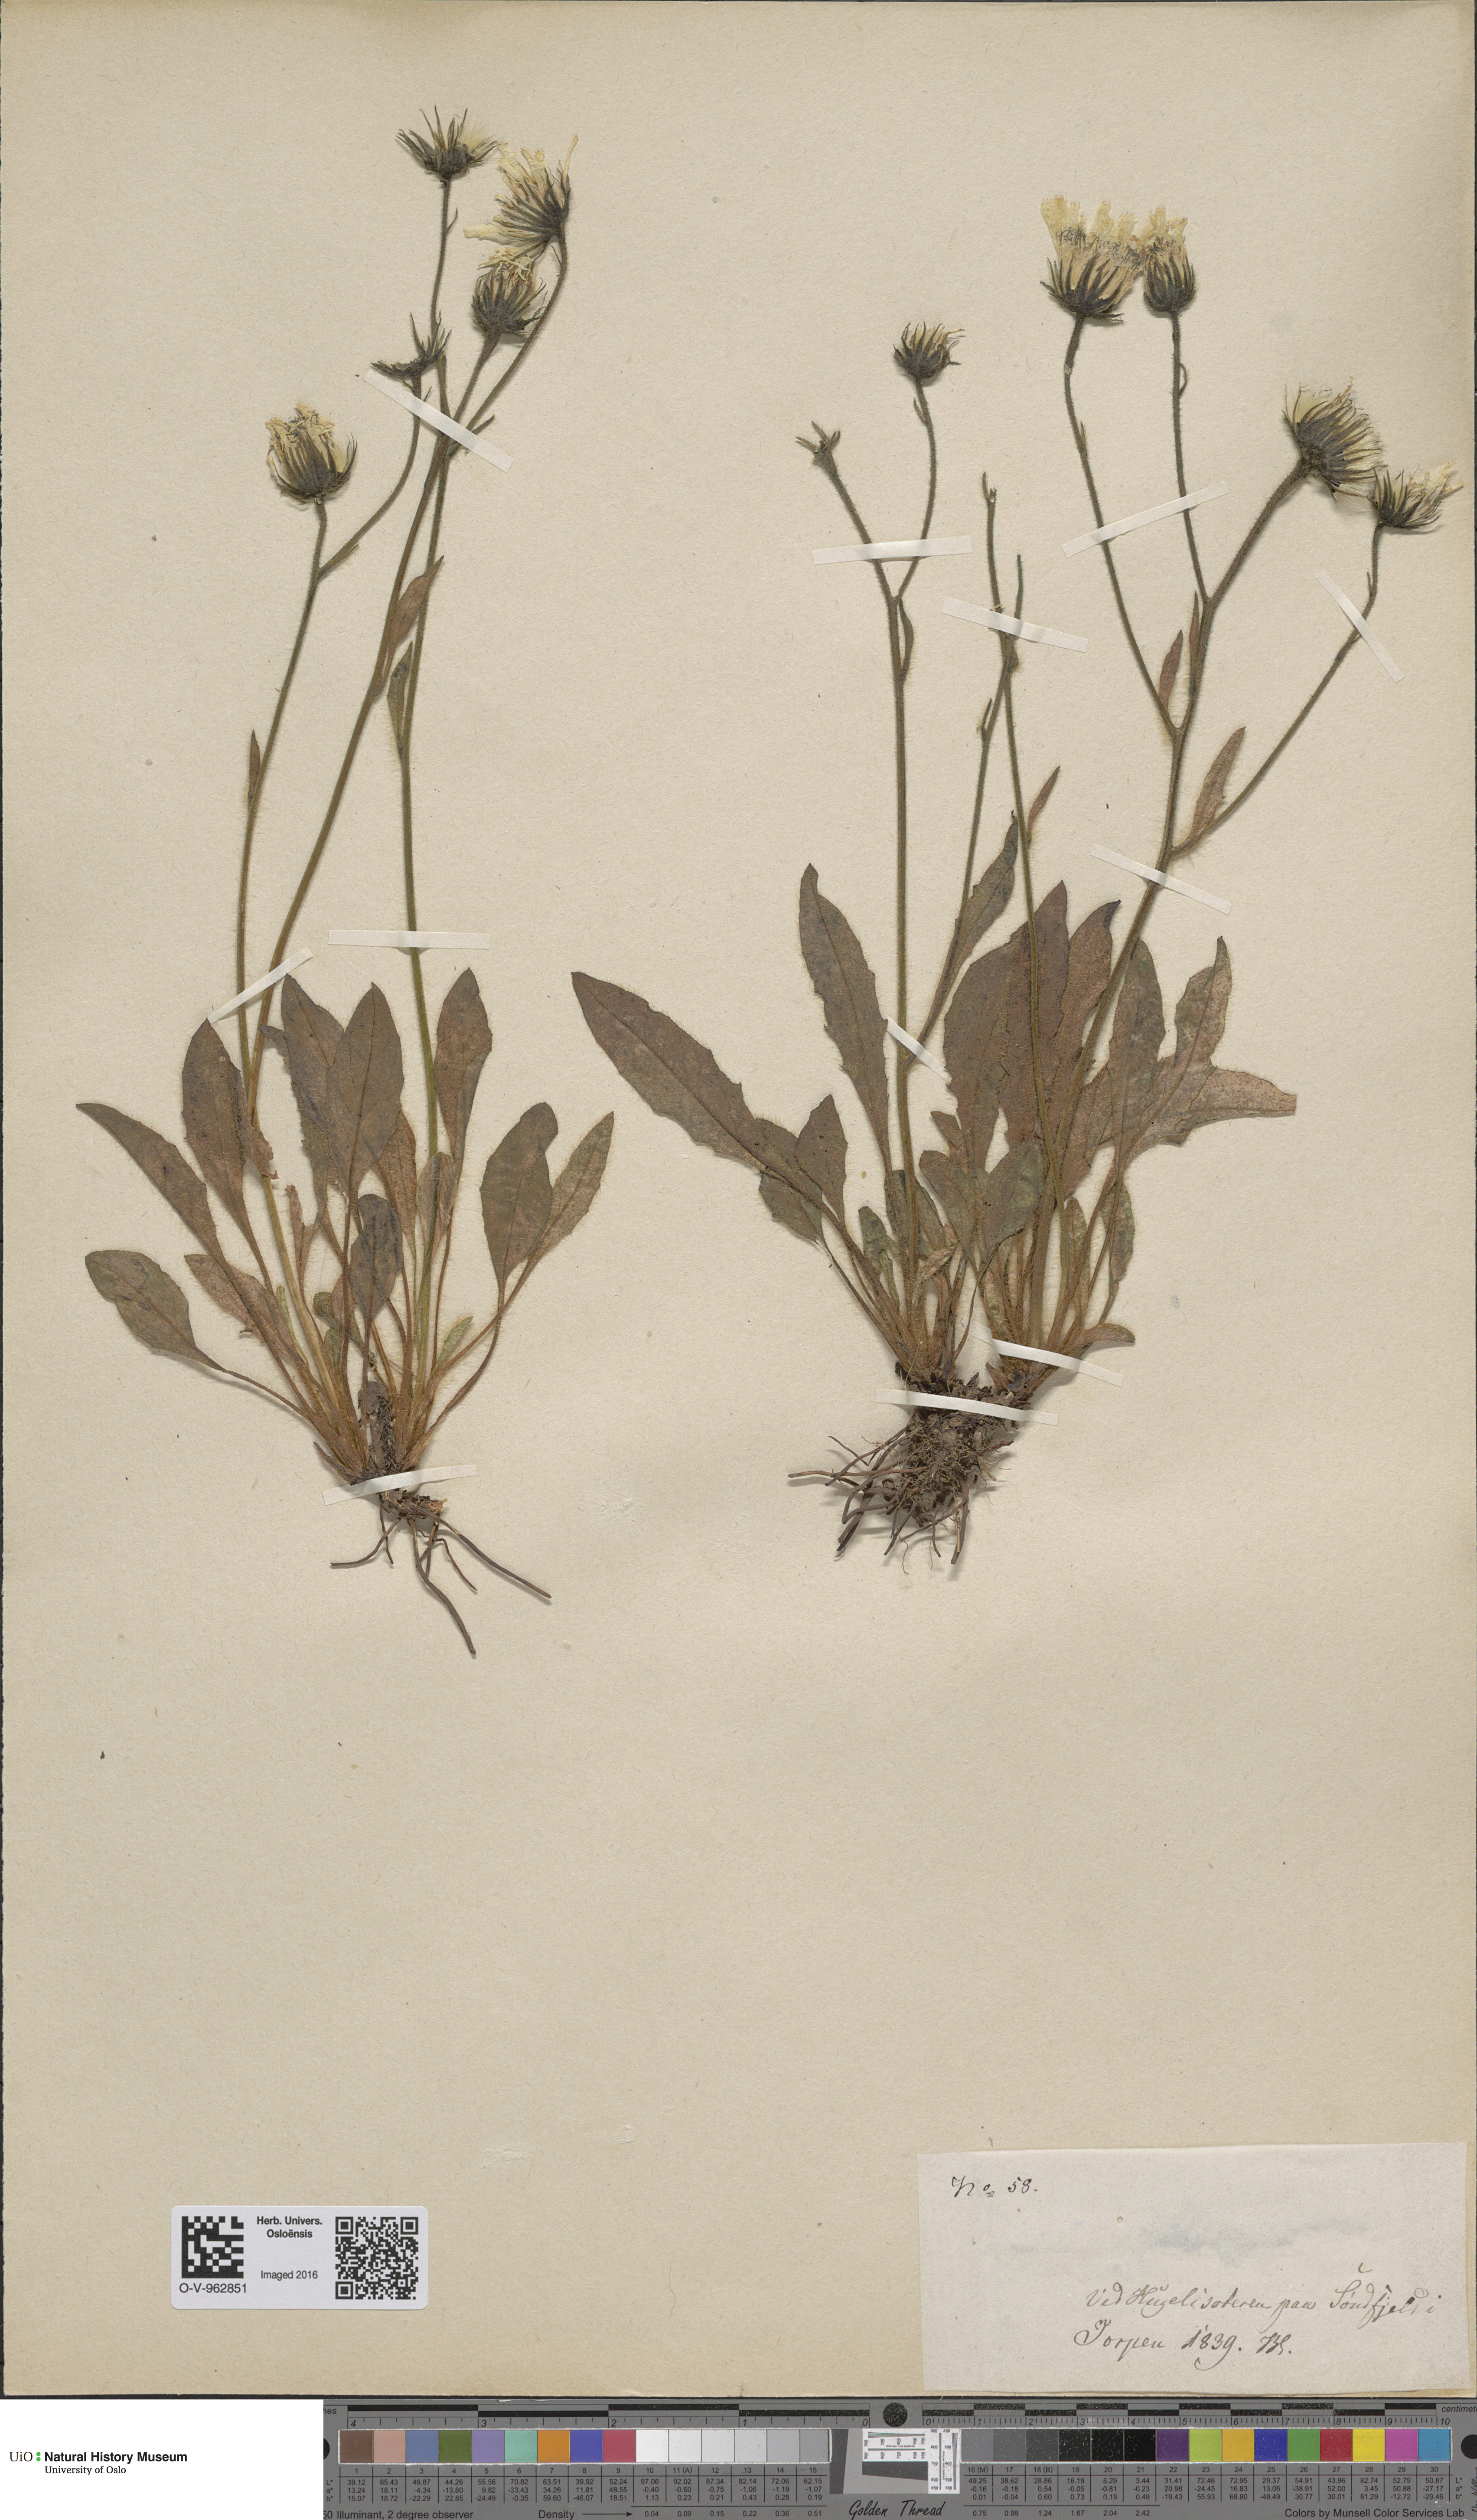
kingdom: Plantae
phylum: Tracheophyta
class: Magnoliopsida
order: Asterales
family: Asteraceae
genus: Hieracium
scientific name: Hieracium
